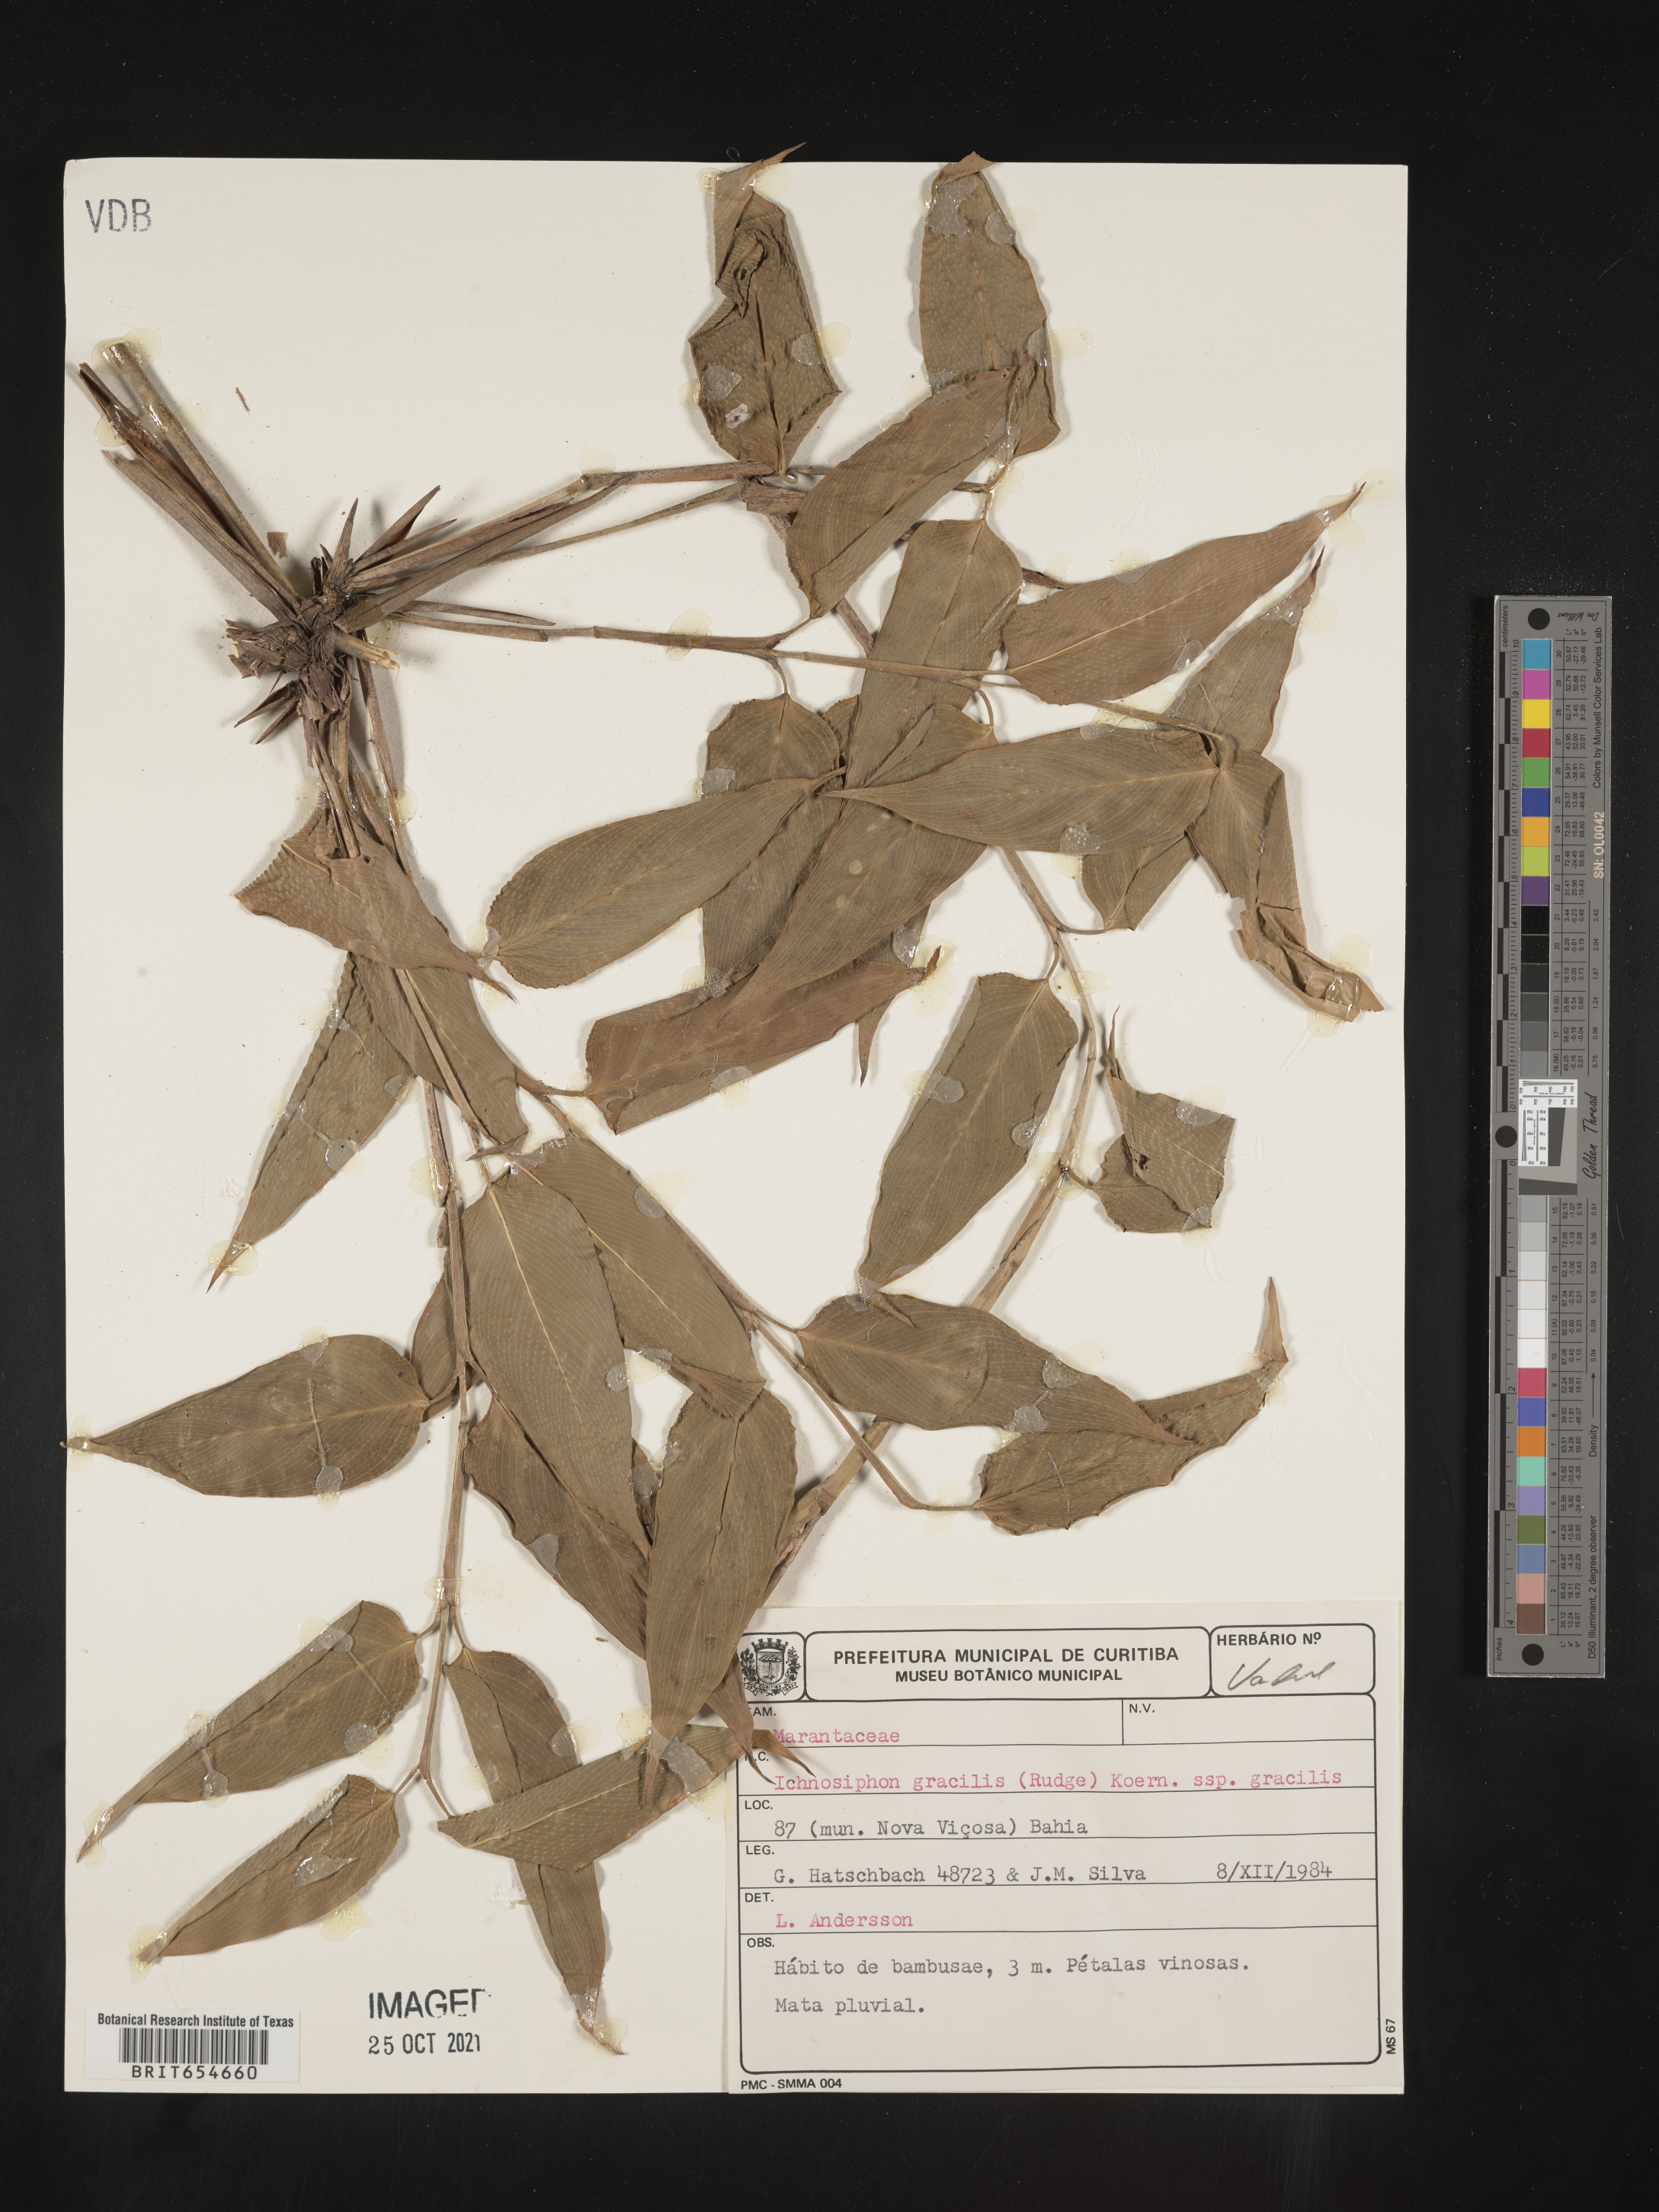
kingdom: Plantae
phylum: Tracheophyta
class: Liliopsida
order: Zingiberales
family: Marantaceae
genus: Ischnosiphon
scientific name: Ischnosiphon
